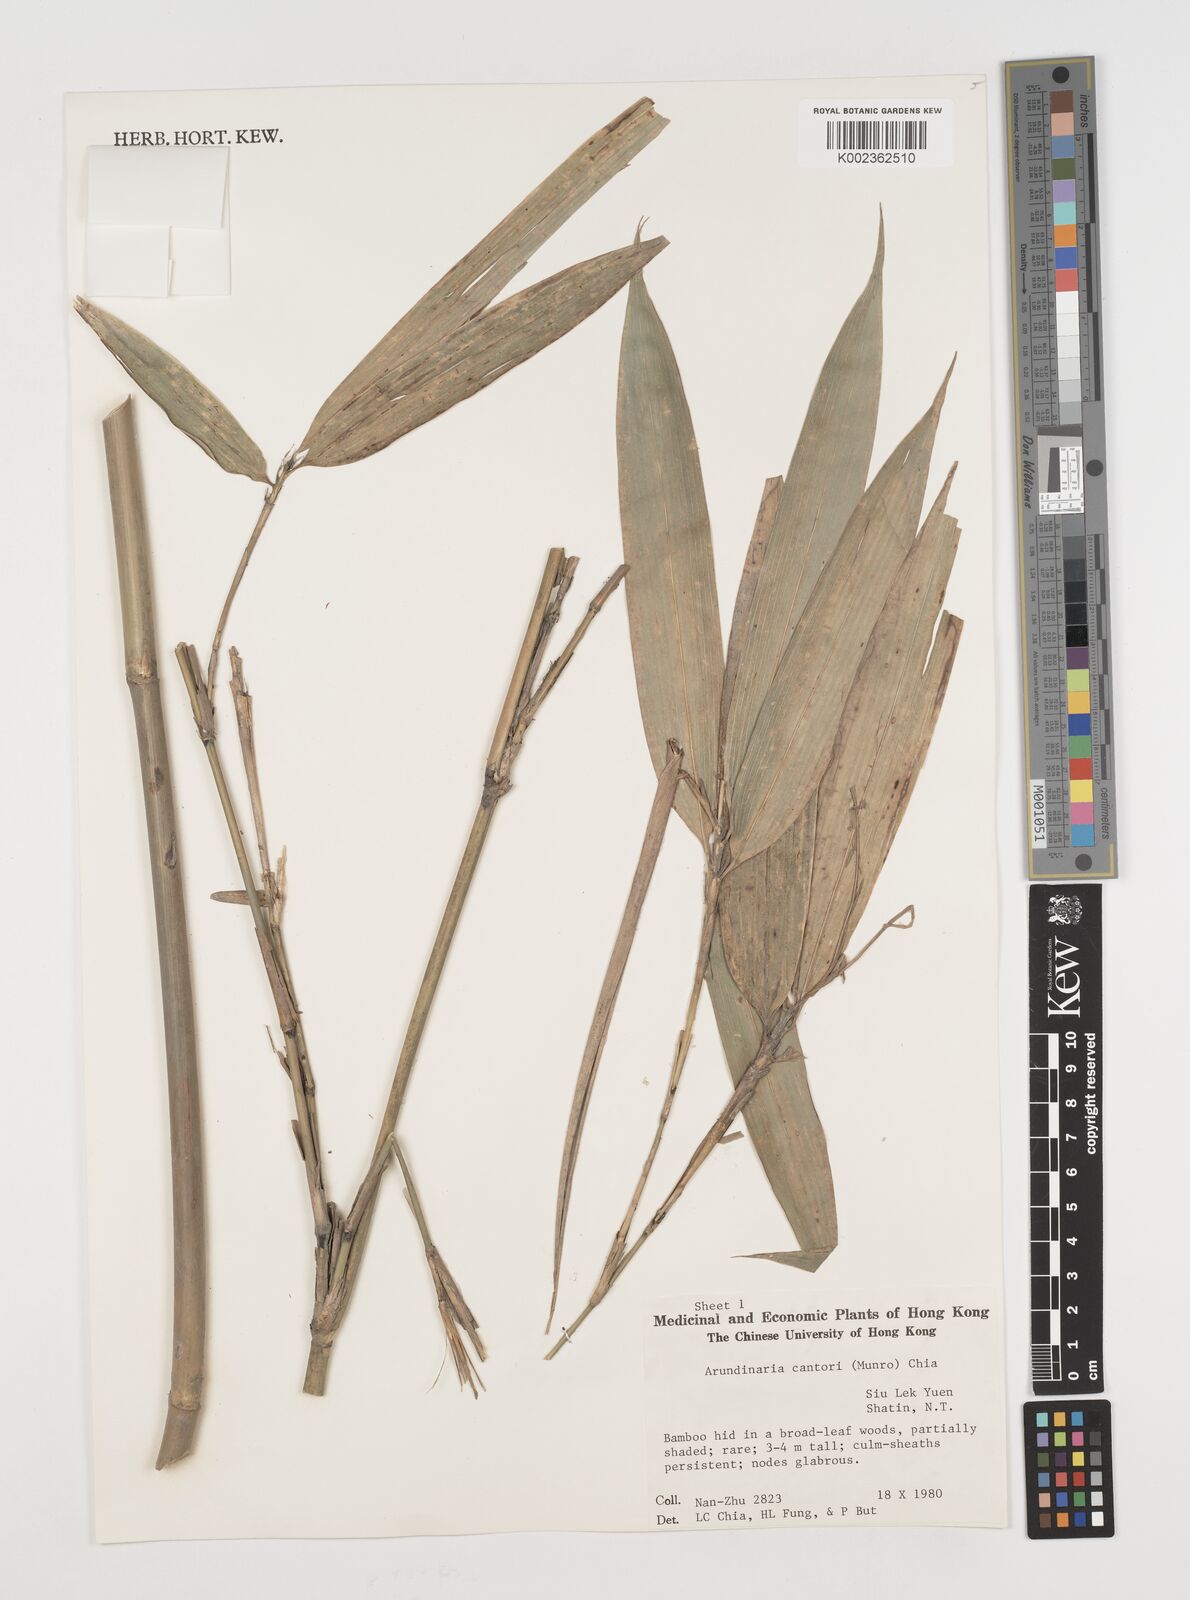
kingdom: Plantae
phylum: Tracheophyta
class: Liliopsida
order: Poales
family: Poaceae
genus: Pseudosasa
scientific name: Pseudosasa cantorii
